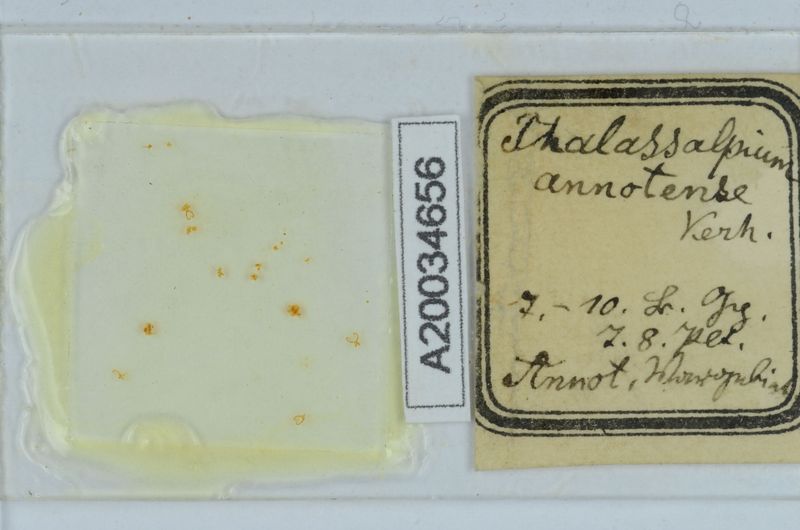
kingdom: Animalia
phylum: Arthropoda
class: Diplopoda
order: Chordeumatida
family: Craspedosomatidae
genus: Ochogona
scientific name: Ochogona
